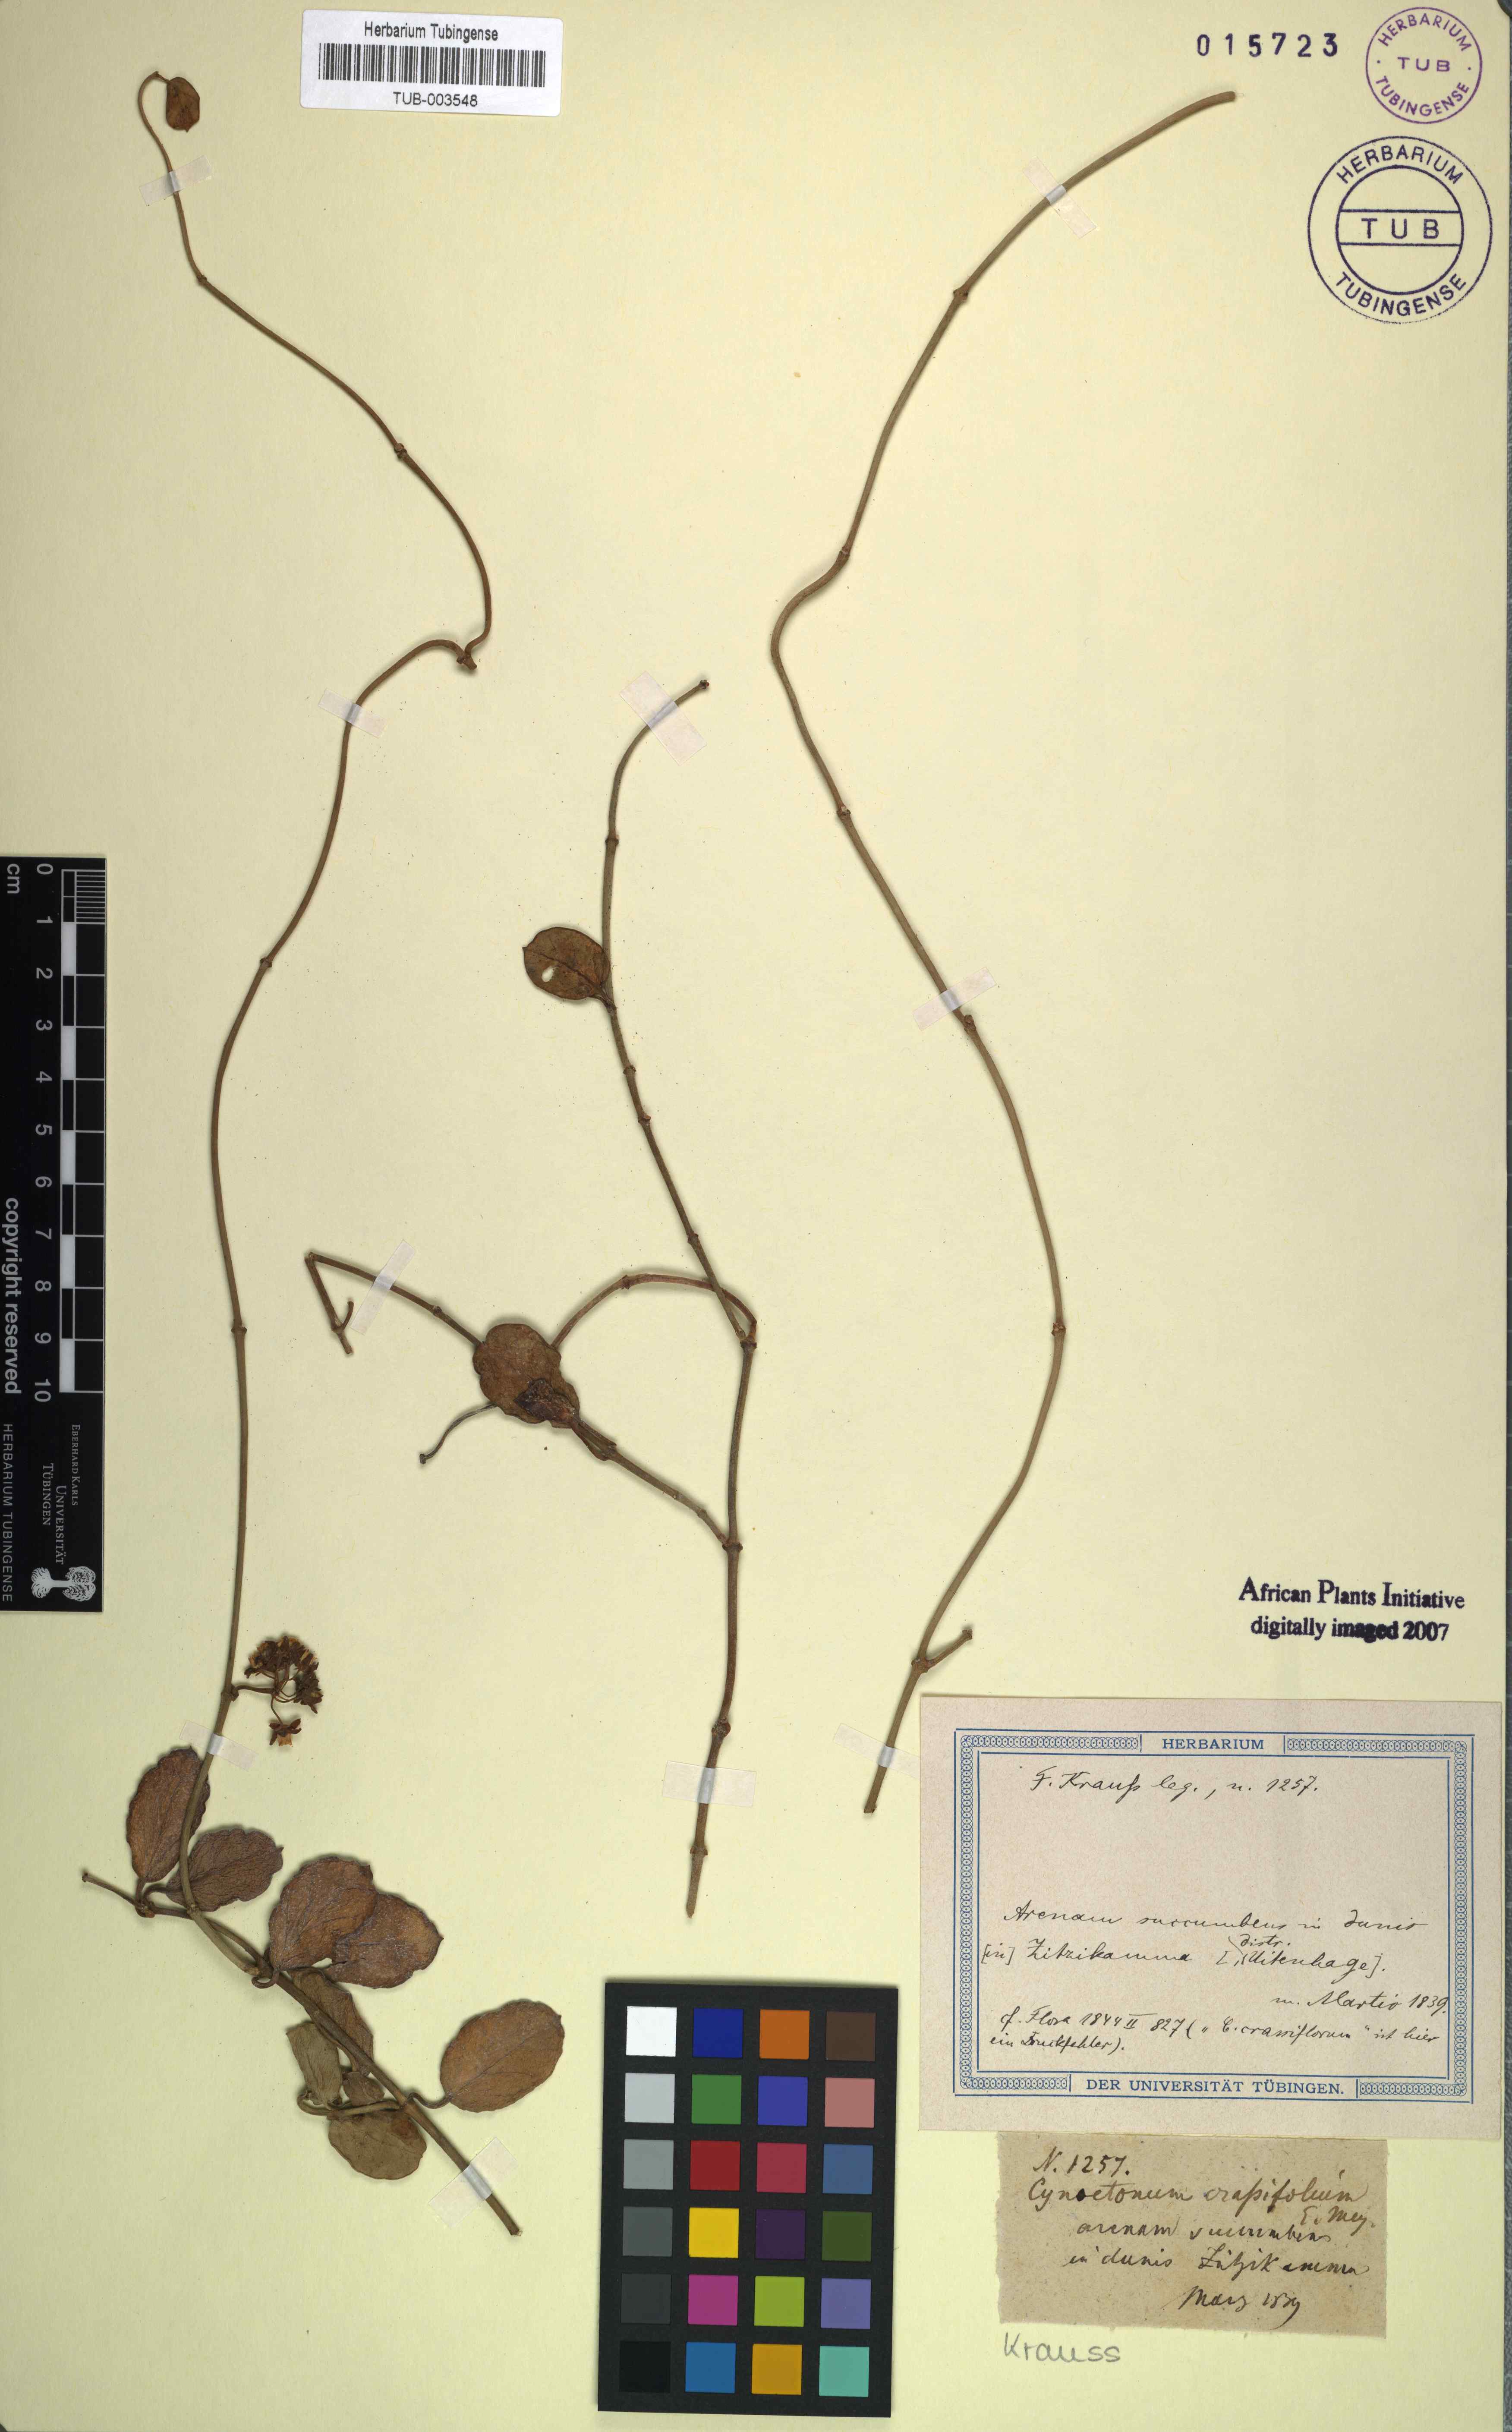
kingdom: Plantae
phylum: Tracheophyta
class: Magnoliopsida
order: Gentianales
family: Apocynaceae
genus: Cynanchum
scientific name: Cynanchum obtusifolium
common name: Monkey-rope
